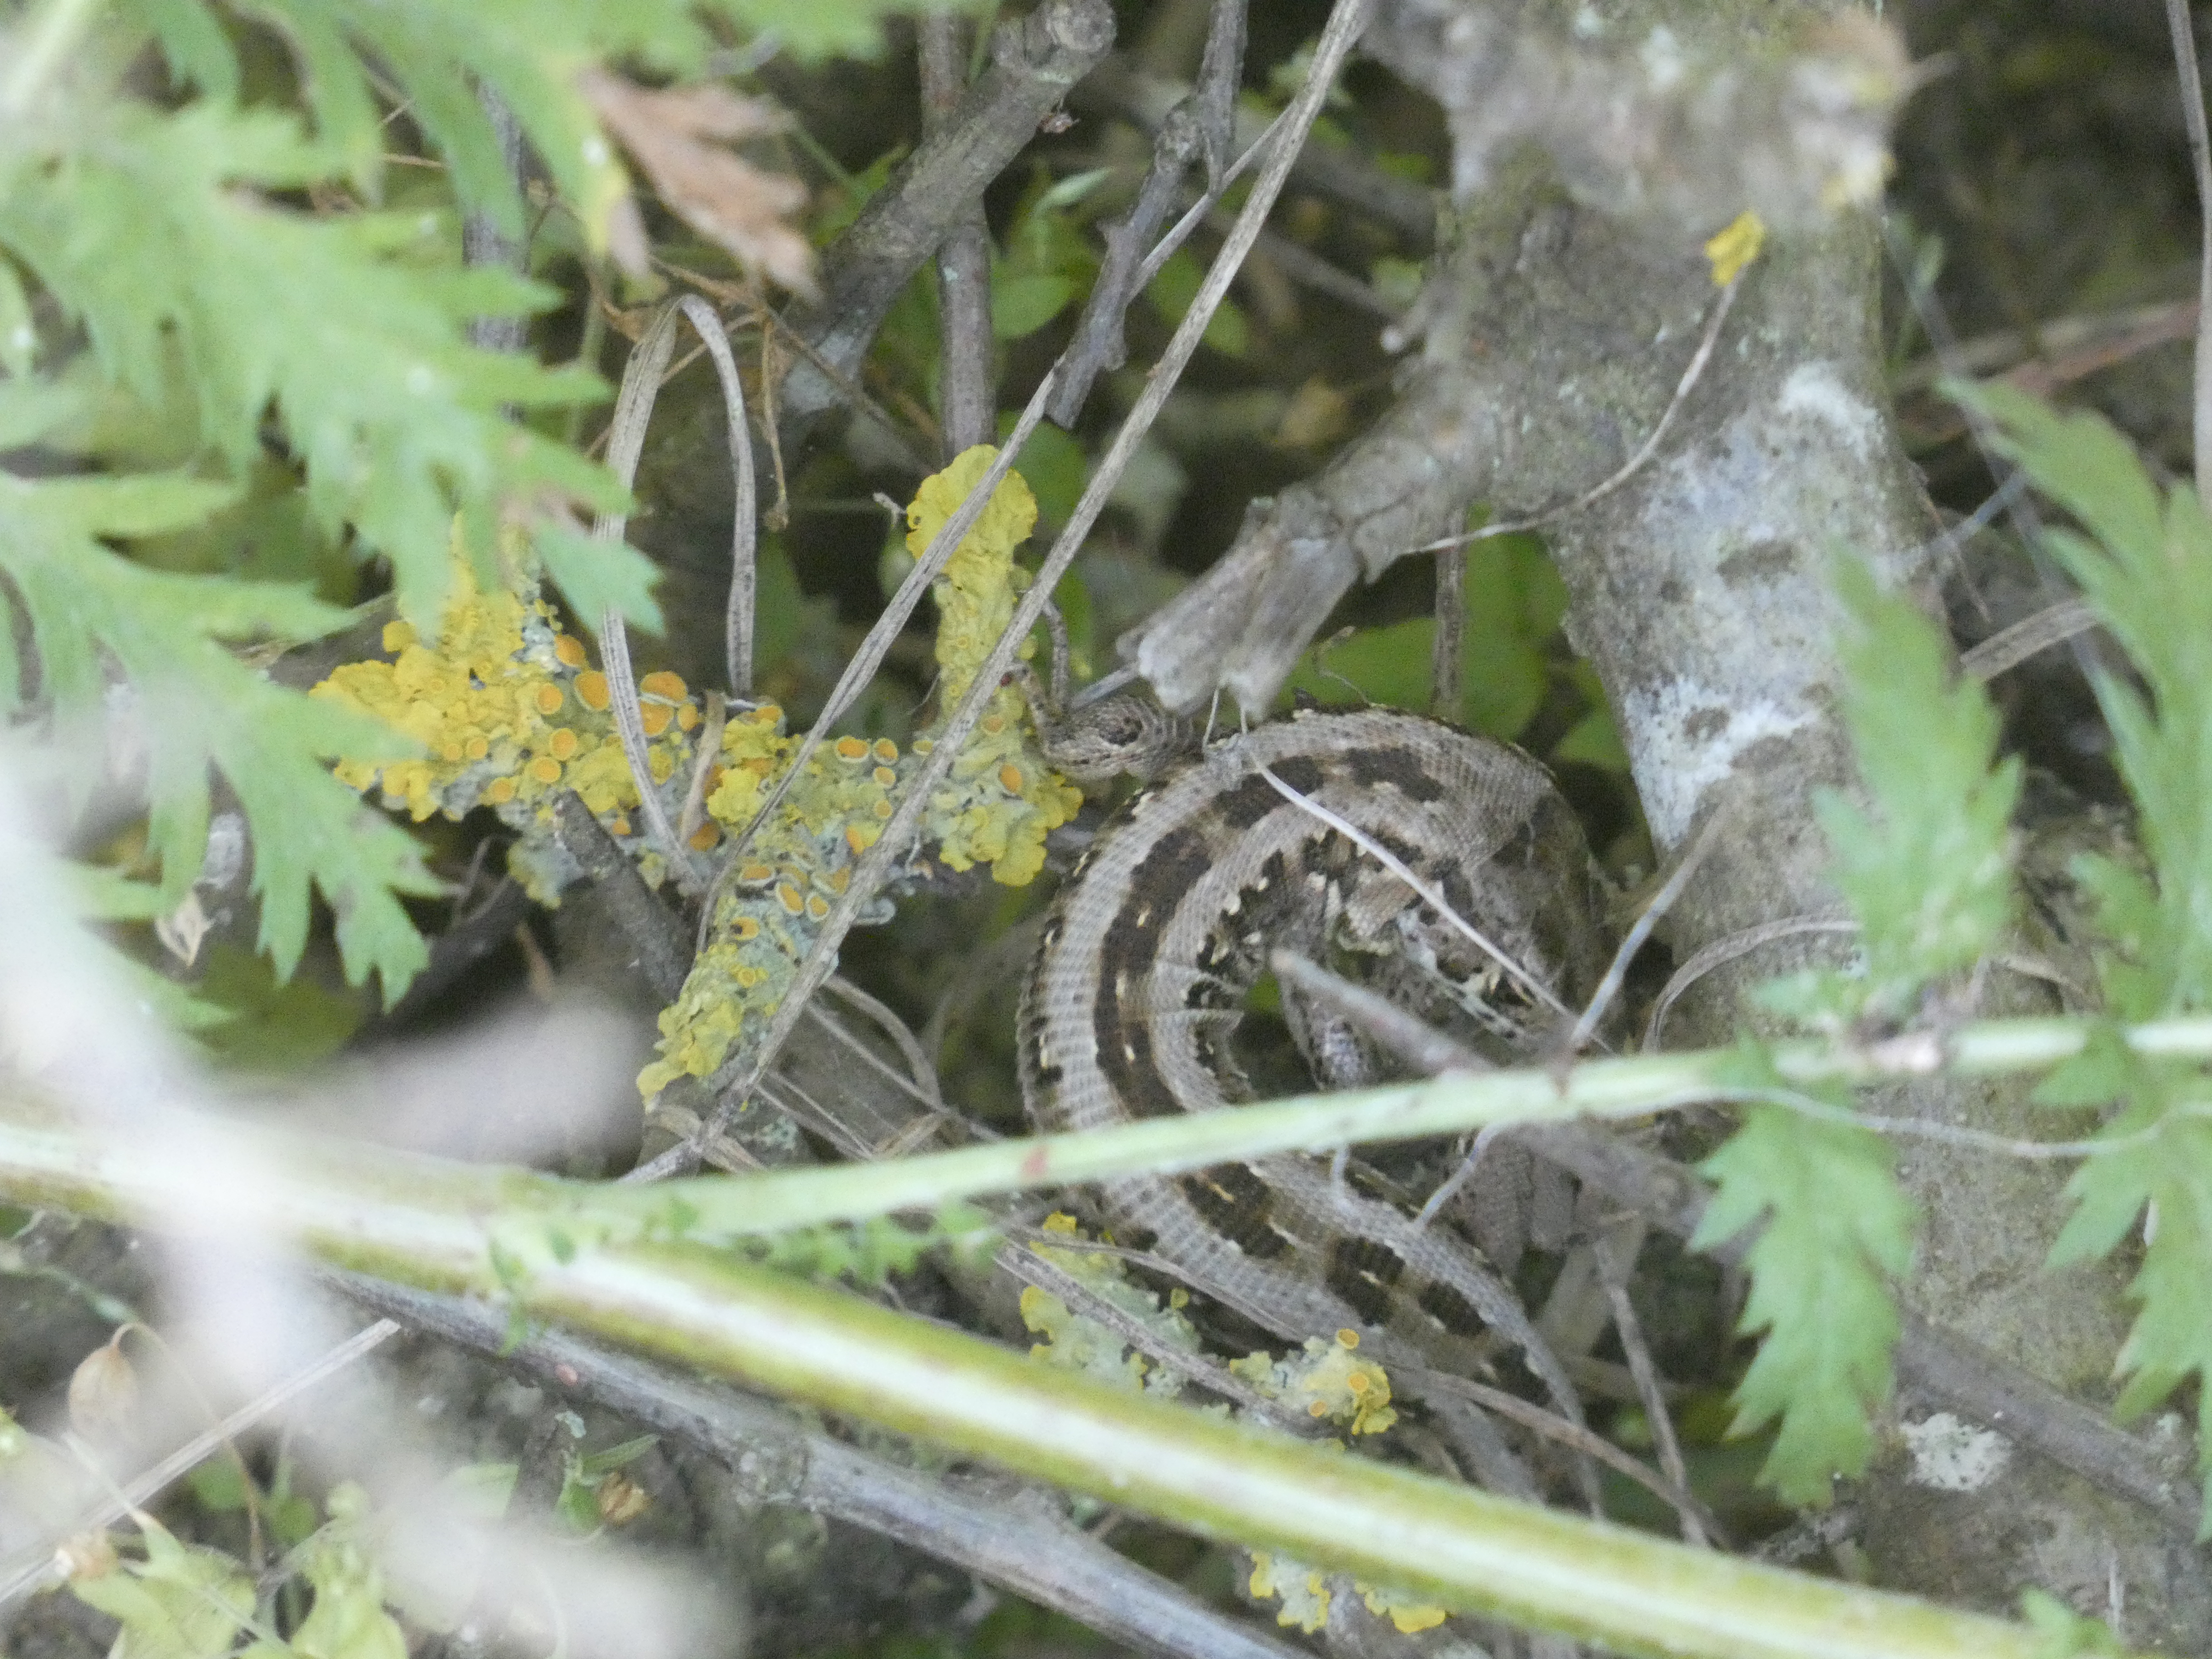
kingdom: Animalia
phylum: Chordata
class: Squamata
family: Lacertidae
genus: Lacerta
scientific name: Lacerta agilis
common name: Markfirben
